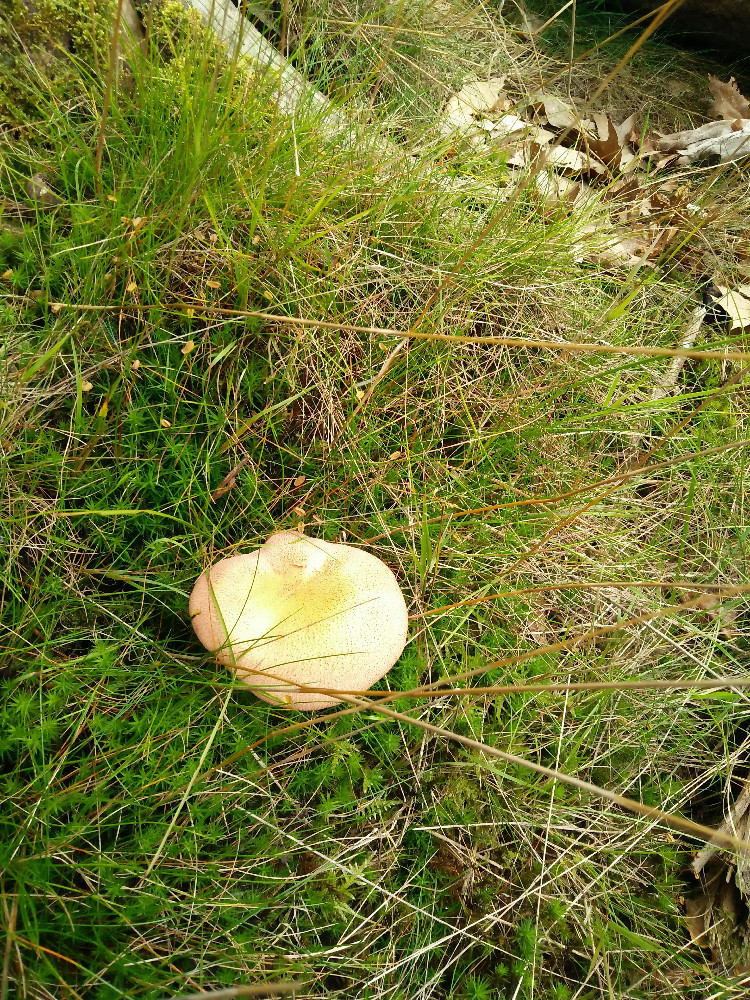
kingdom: Fungi
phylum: Basidiomycota
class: Agaricomycetes
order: Agaricales
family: Tricholomataceae
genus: Tricholomopsis
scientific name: Tricholomopsis rutilans
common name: purpur-væbnerhat
